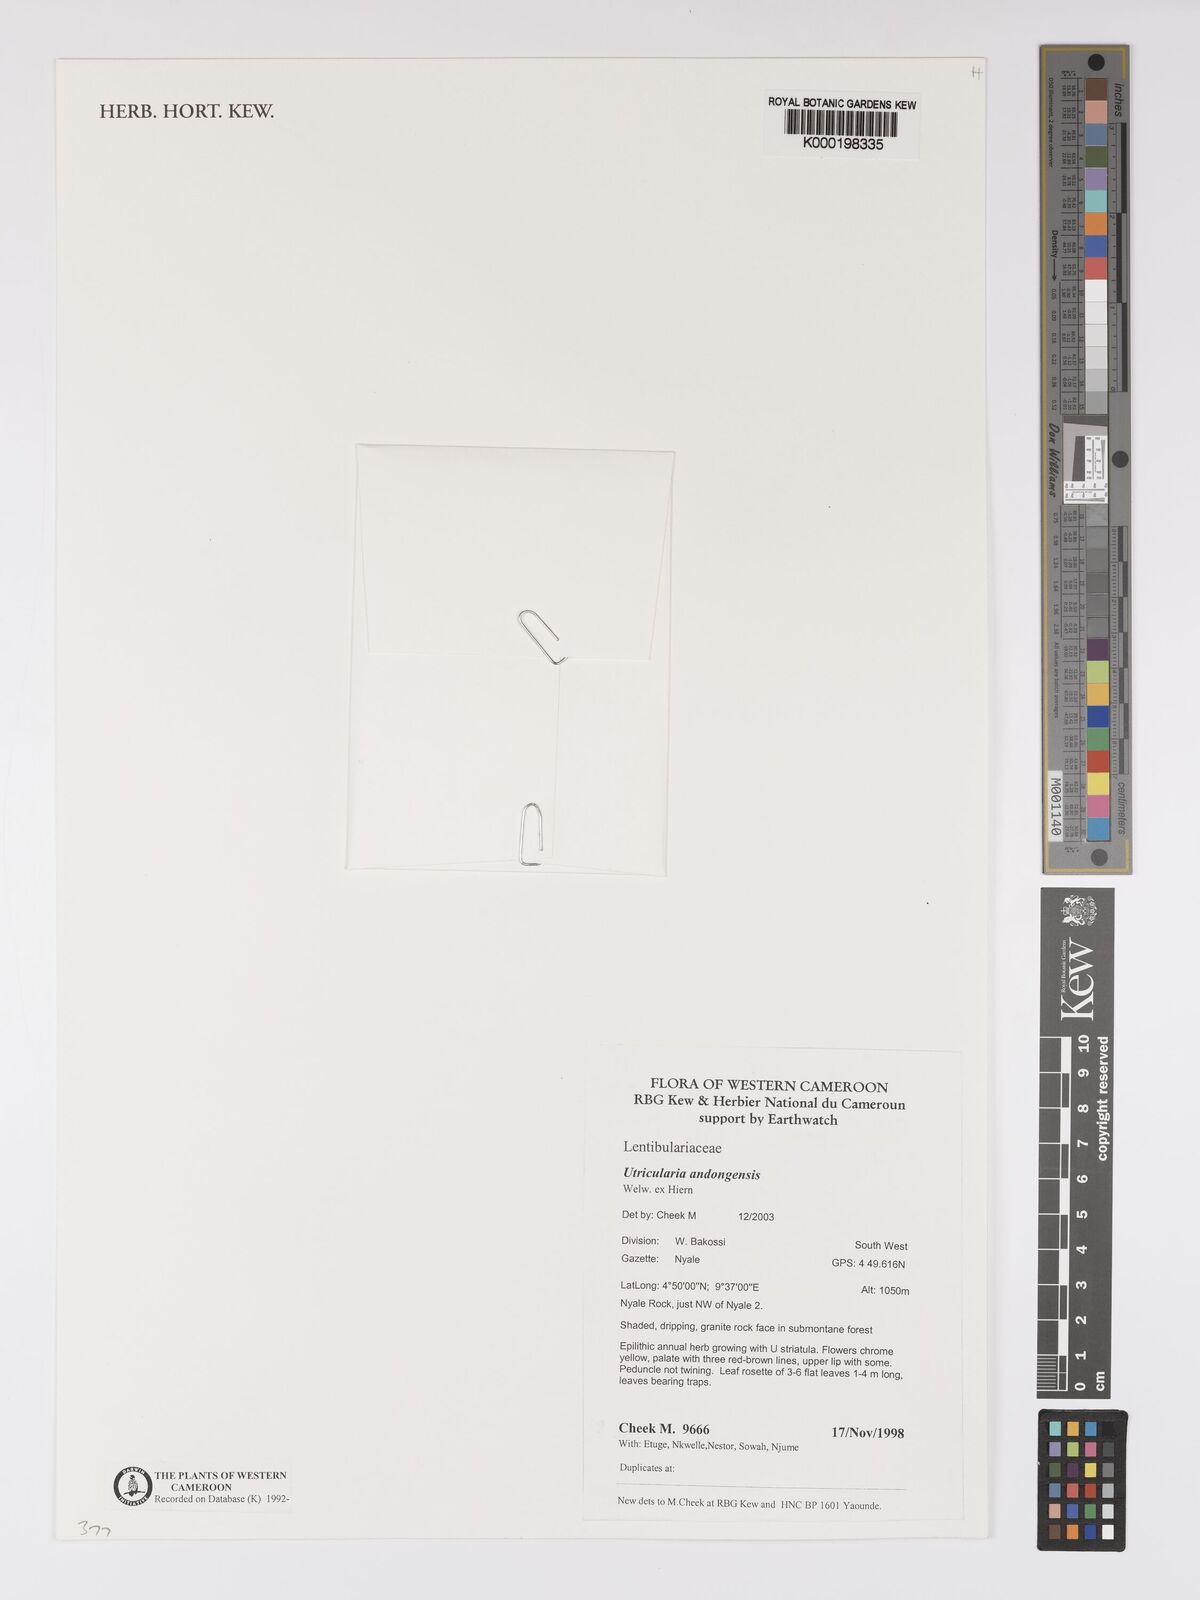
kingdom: Plantae
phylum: Tracheophyta
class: Magnoliopsida
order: Lamiales
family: Lentibulariaceae
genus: Utricularia
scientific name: Utricularia andongensis
